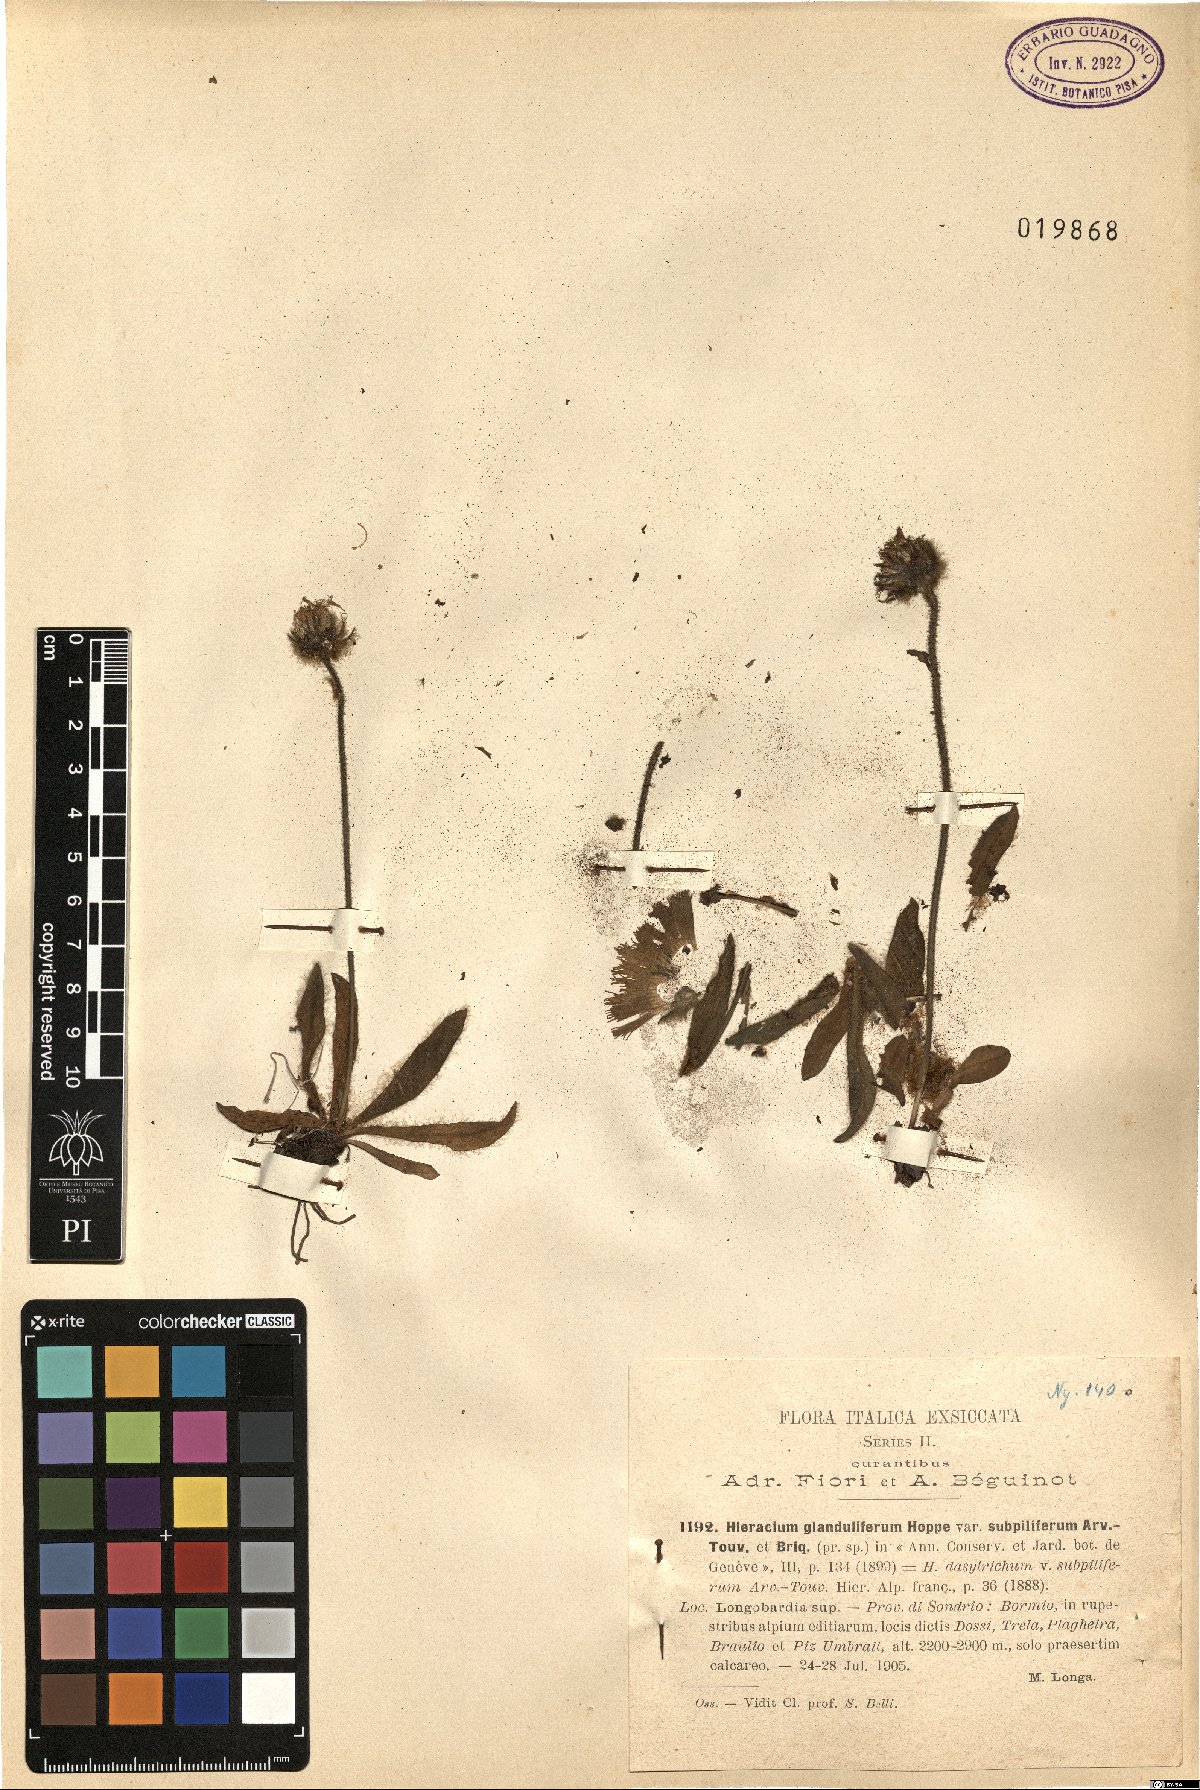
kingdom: Plantae
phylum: Tracheophyta
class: Magnoliopsida
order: Asterales
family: Asteraceae
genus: Hieracium
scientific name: Hieracium piliferum
